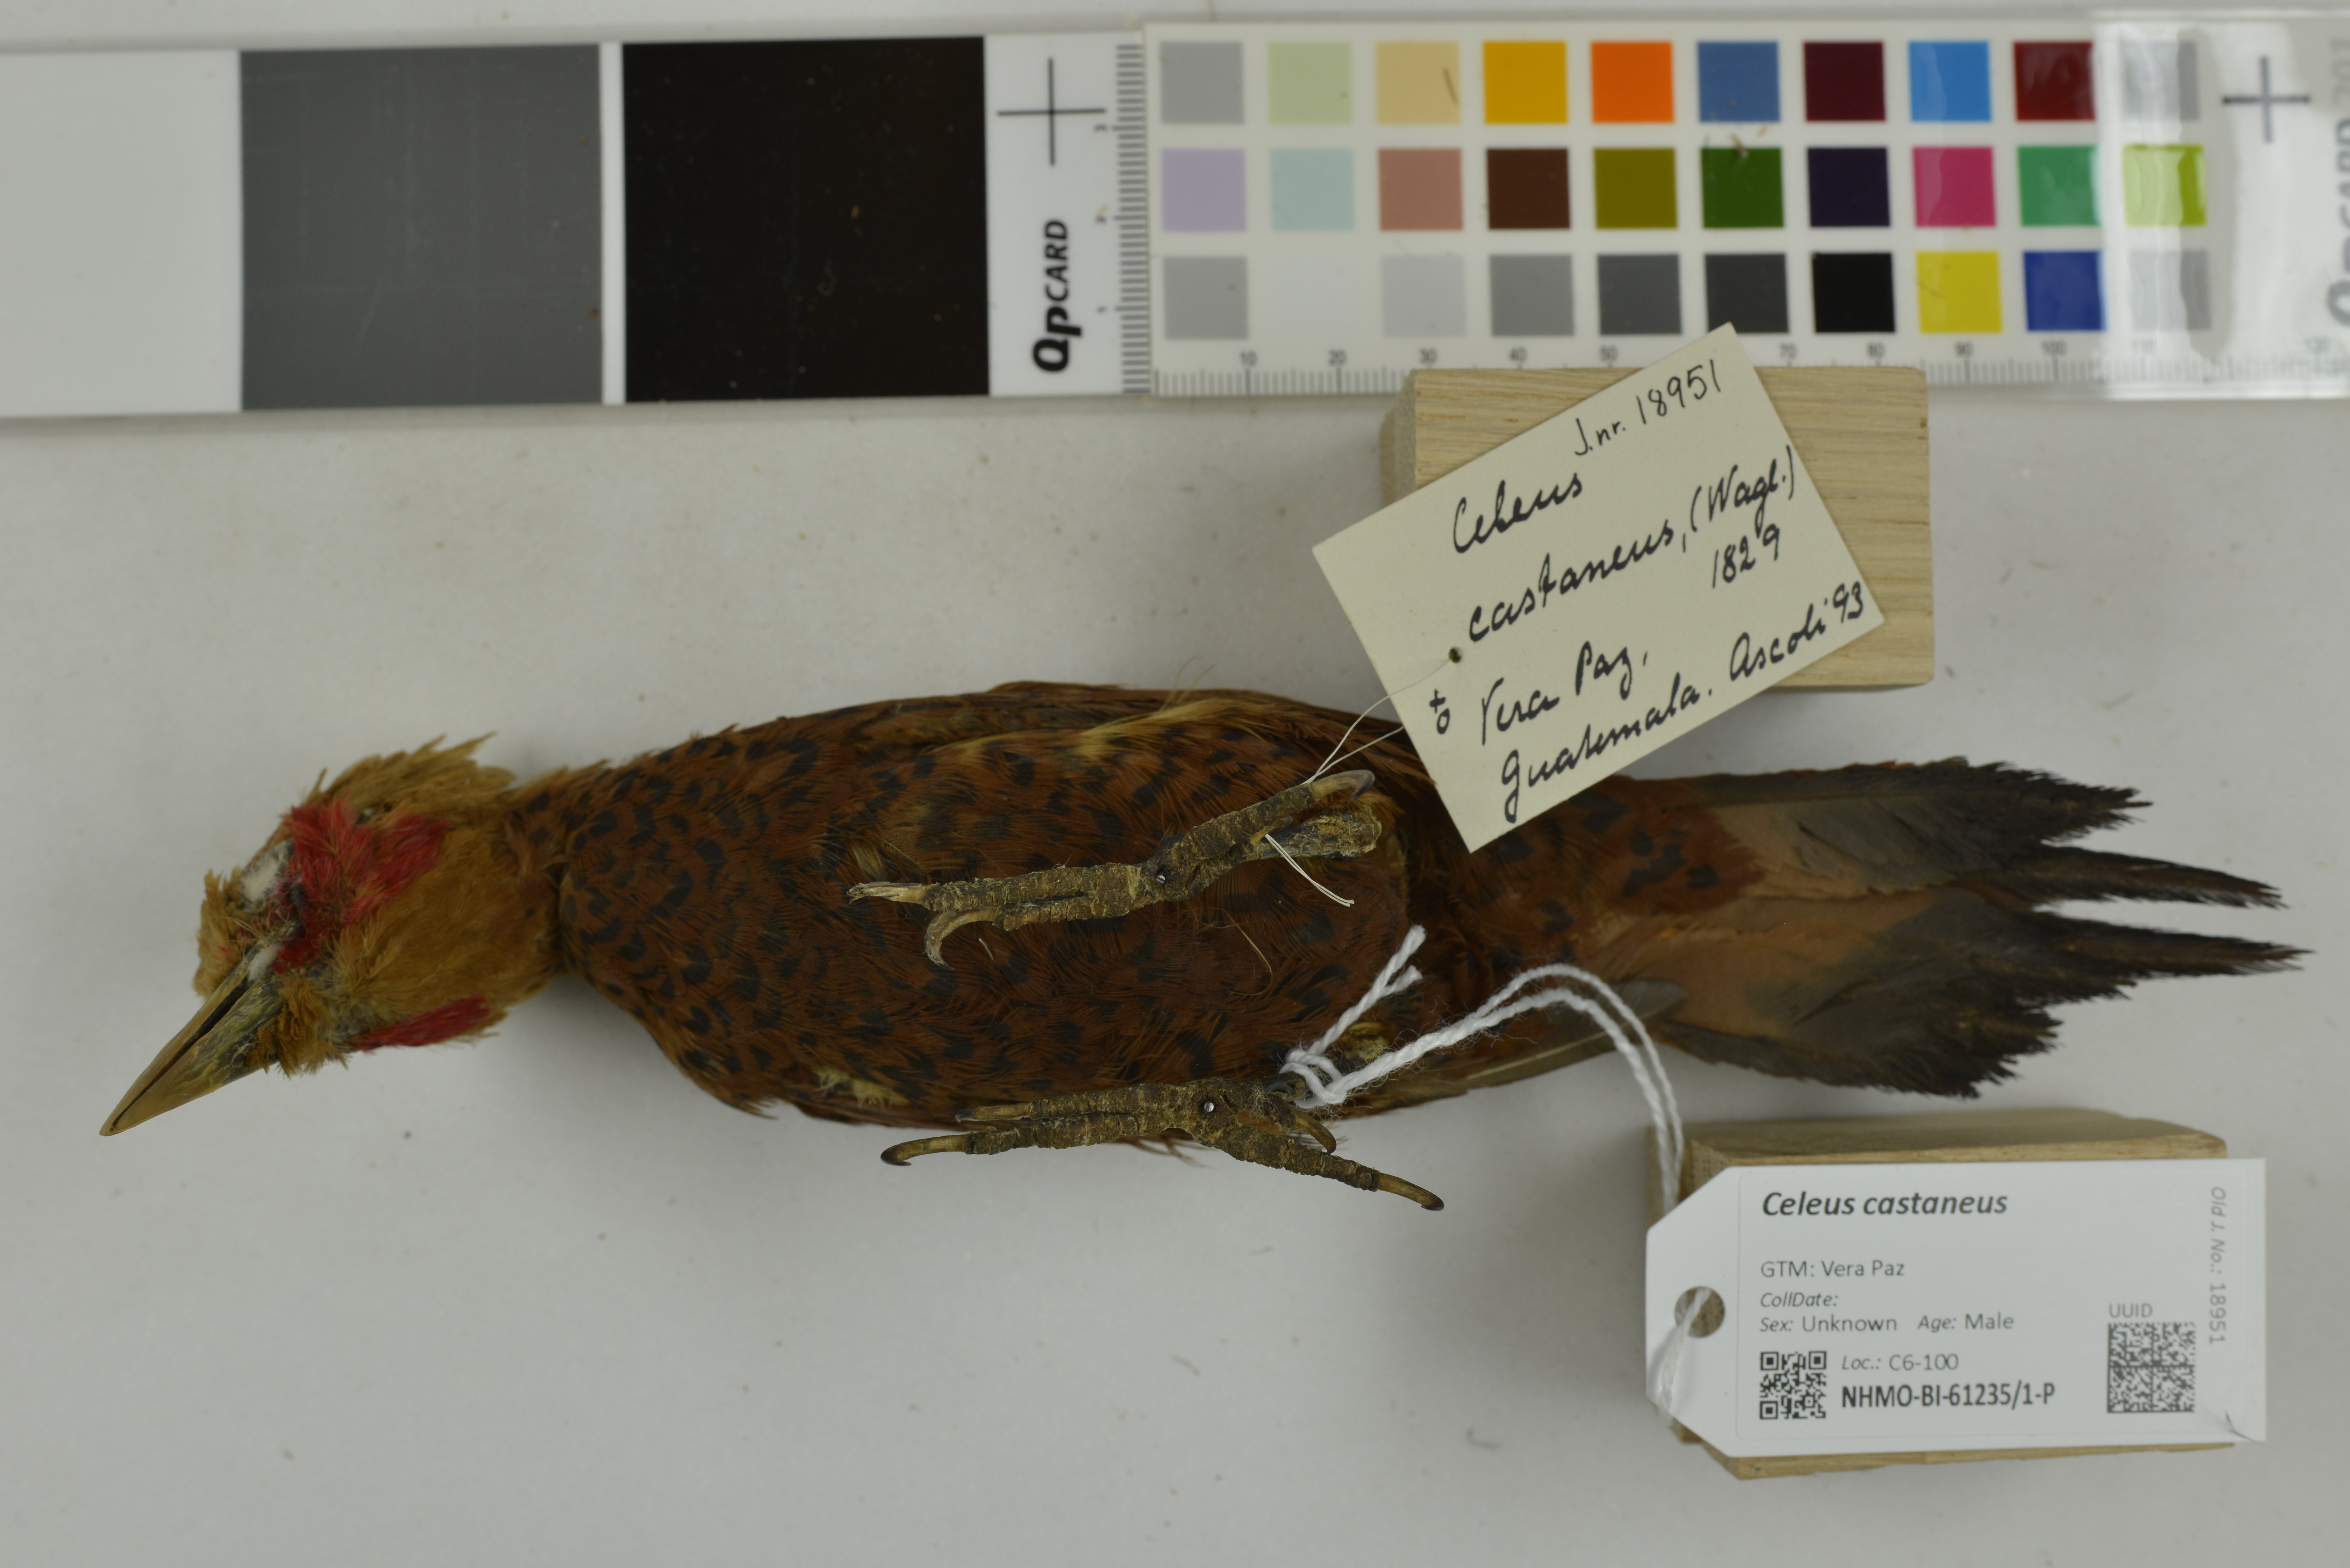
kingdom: Animalia
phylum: Chordata
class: Aves
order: Piciformes
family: Picidae
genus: Celeus
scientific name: Celeus castaneus
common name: Chestnut-colored woodpecker
